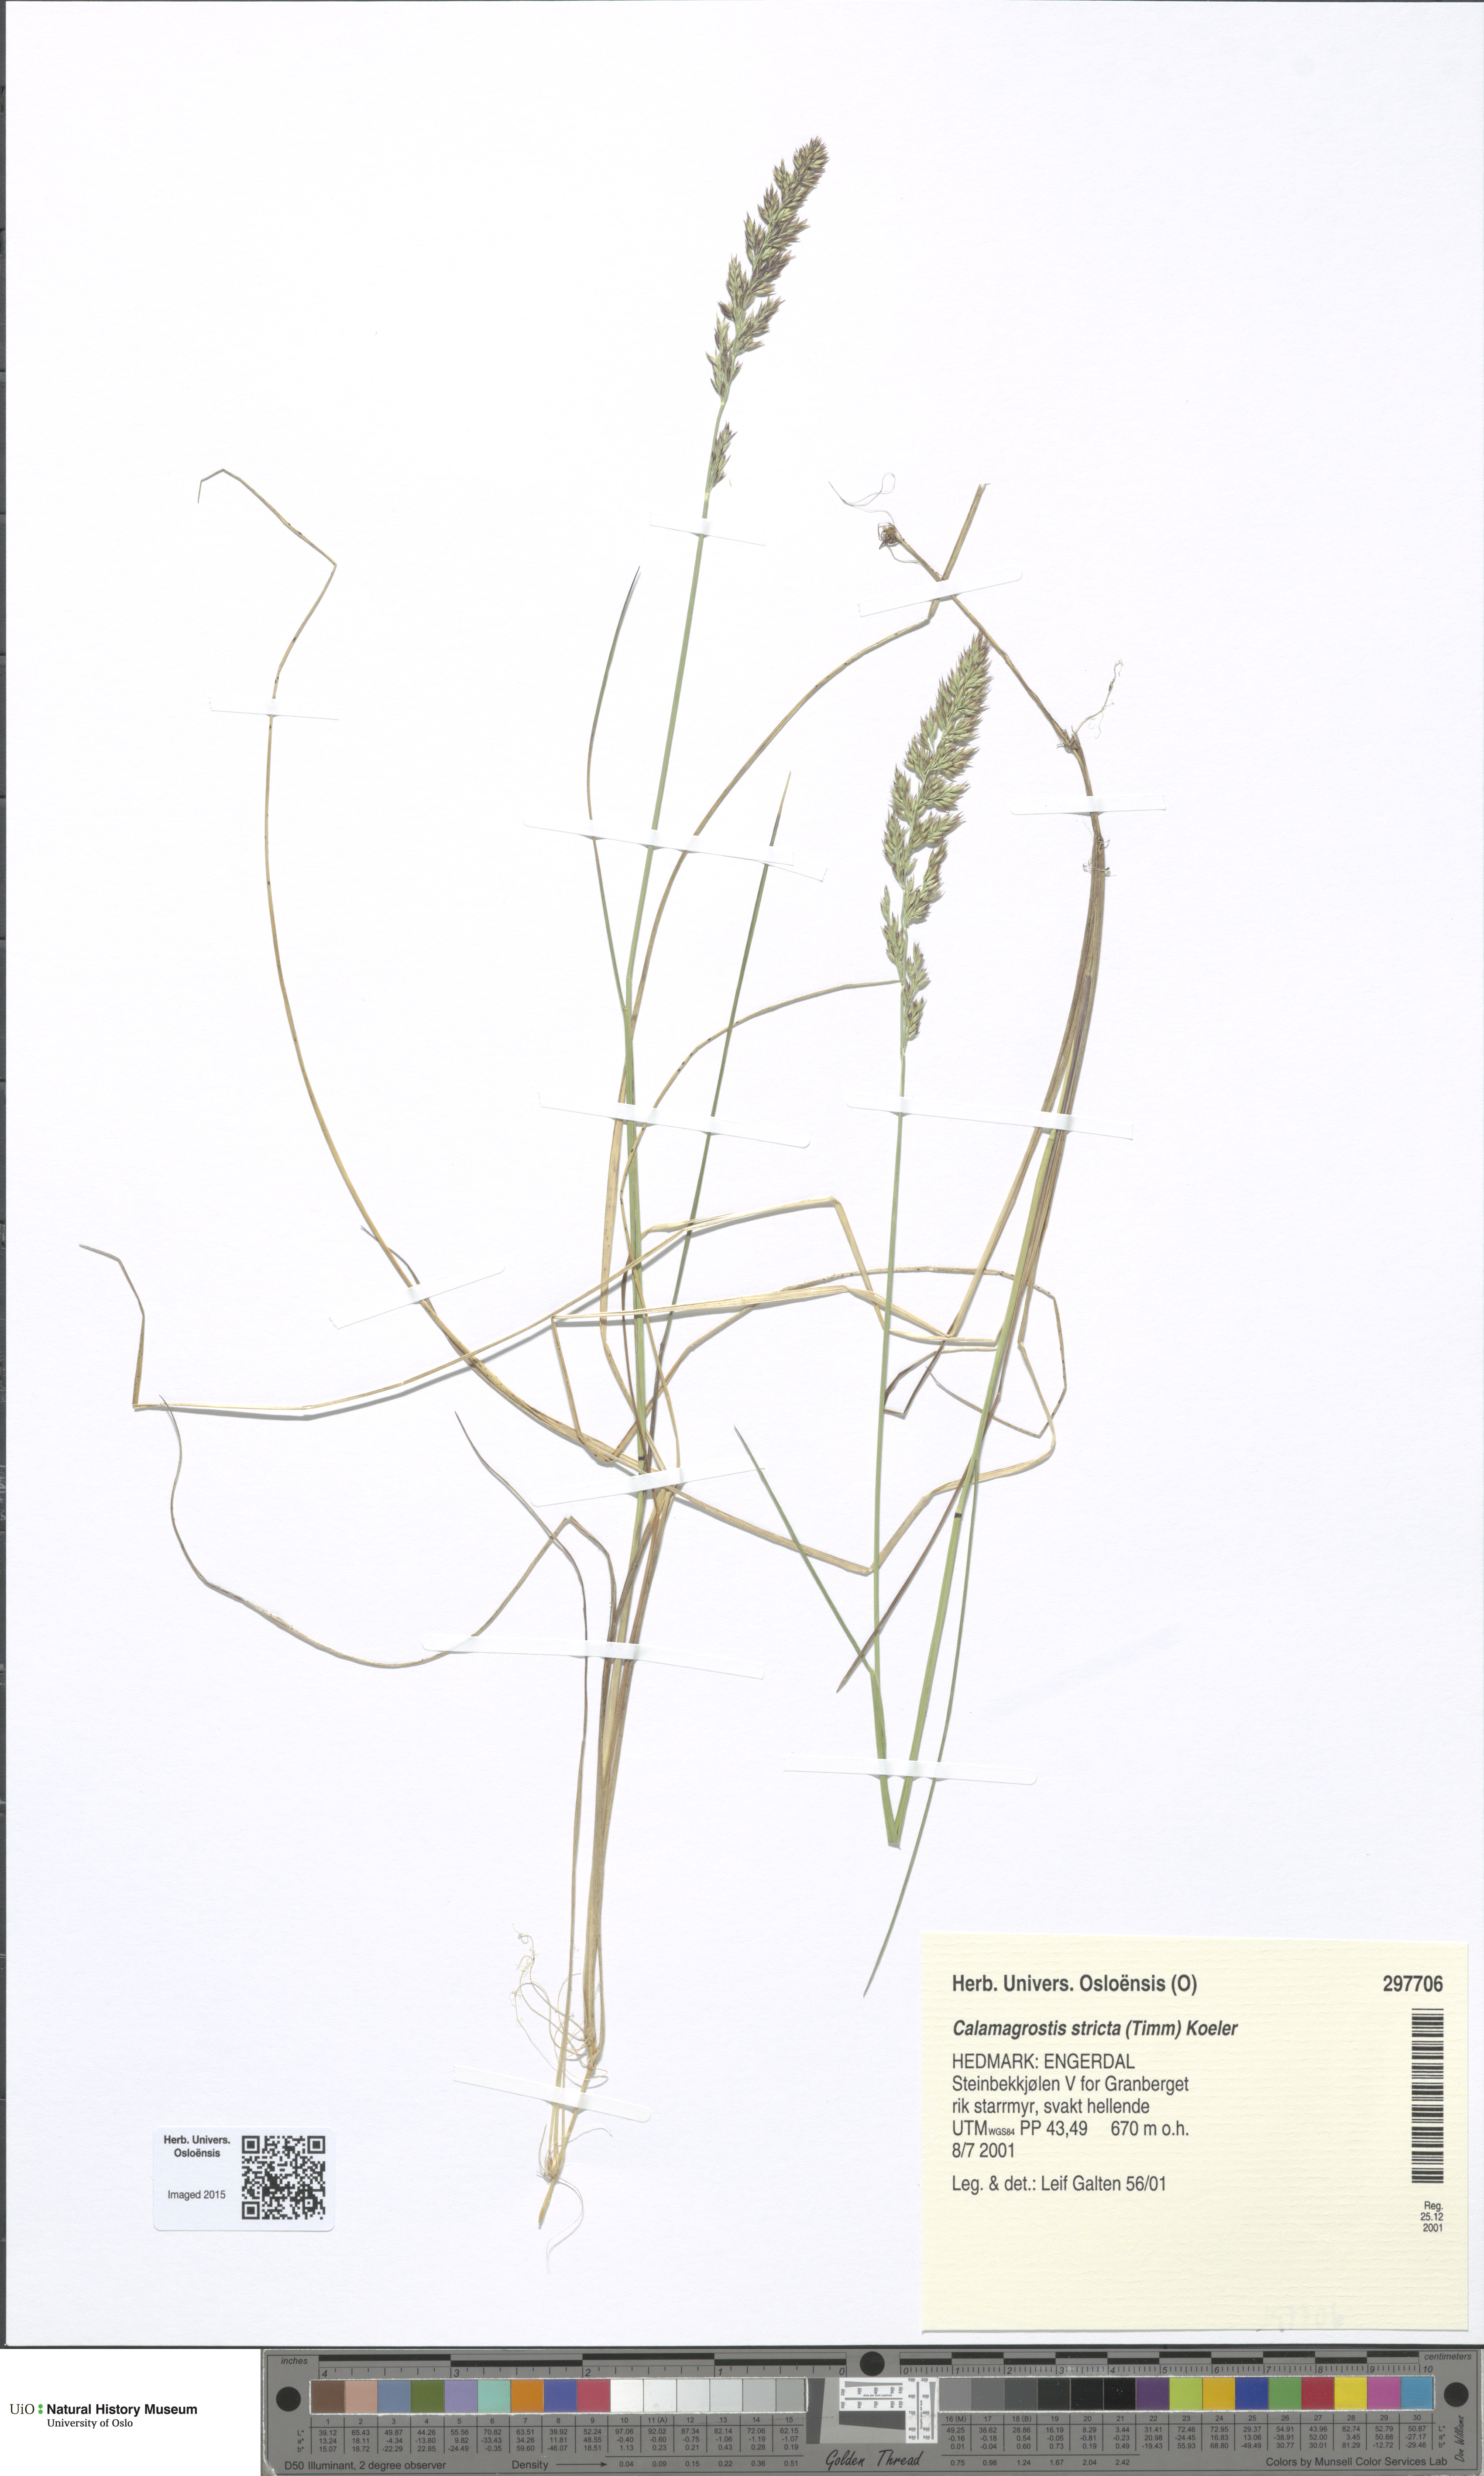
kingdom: Plantae
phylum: Tracheophyta
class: Liliopsida
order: Poales
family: Poaceae
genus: Achnatherum
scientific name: Achnatherum calamagrostis
